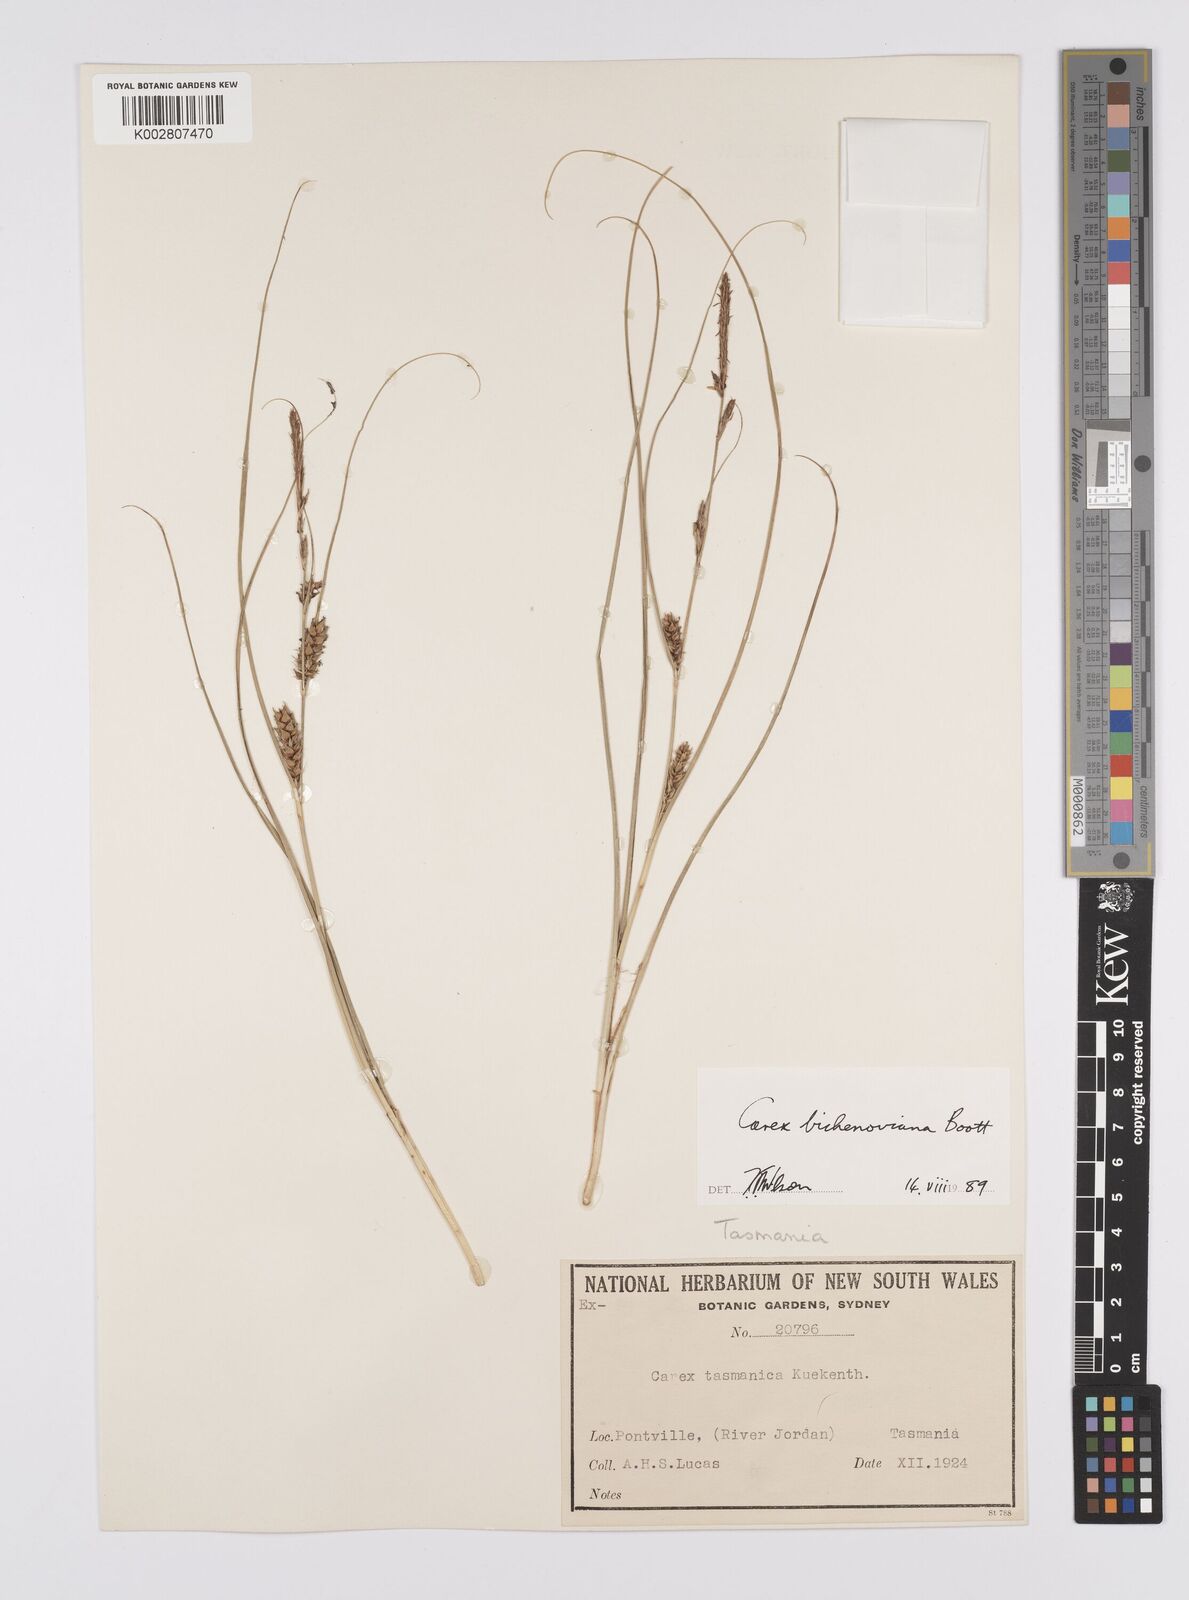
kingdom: Plantae
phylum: Tracheophyta
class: Liliopsida
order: Poales
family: Cyperaceae
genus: Carex
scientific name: Carex bichenoviana
